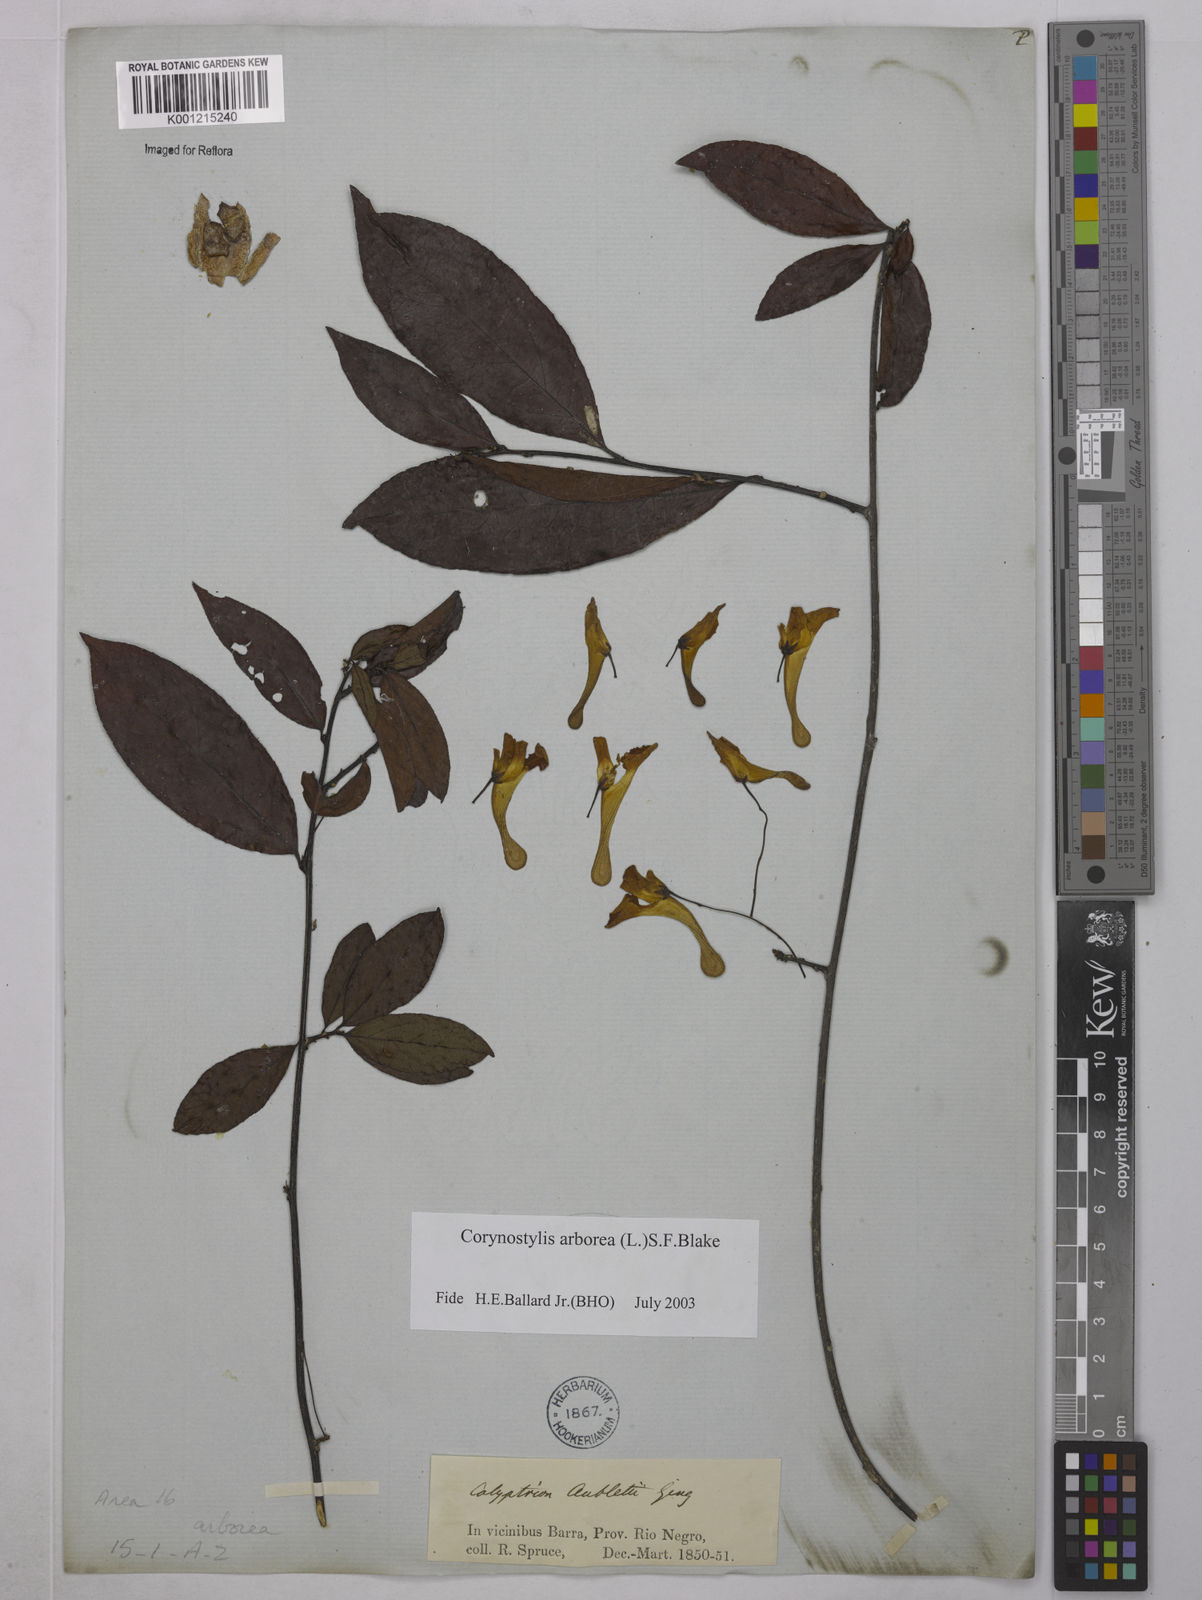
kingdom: Plantae
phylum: Tracheophyta
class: Magnoliopsida
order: Malpighiales
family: Violaceae
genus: Calyptrion
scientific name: Calyptrion arboreum
